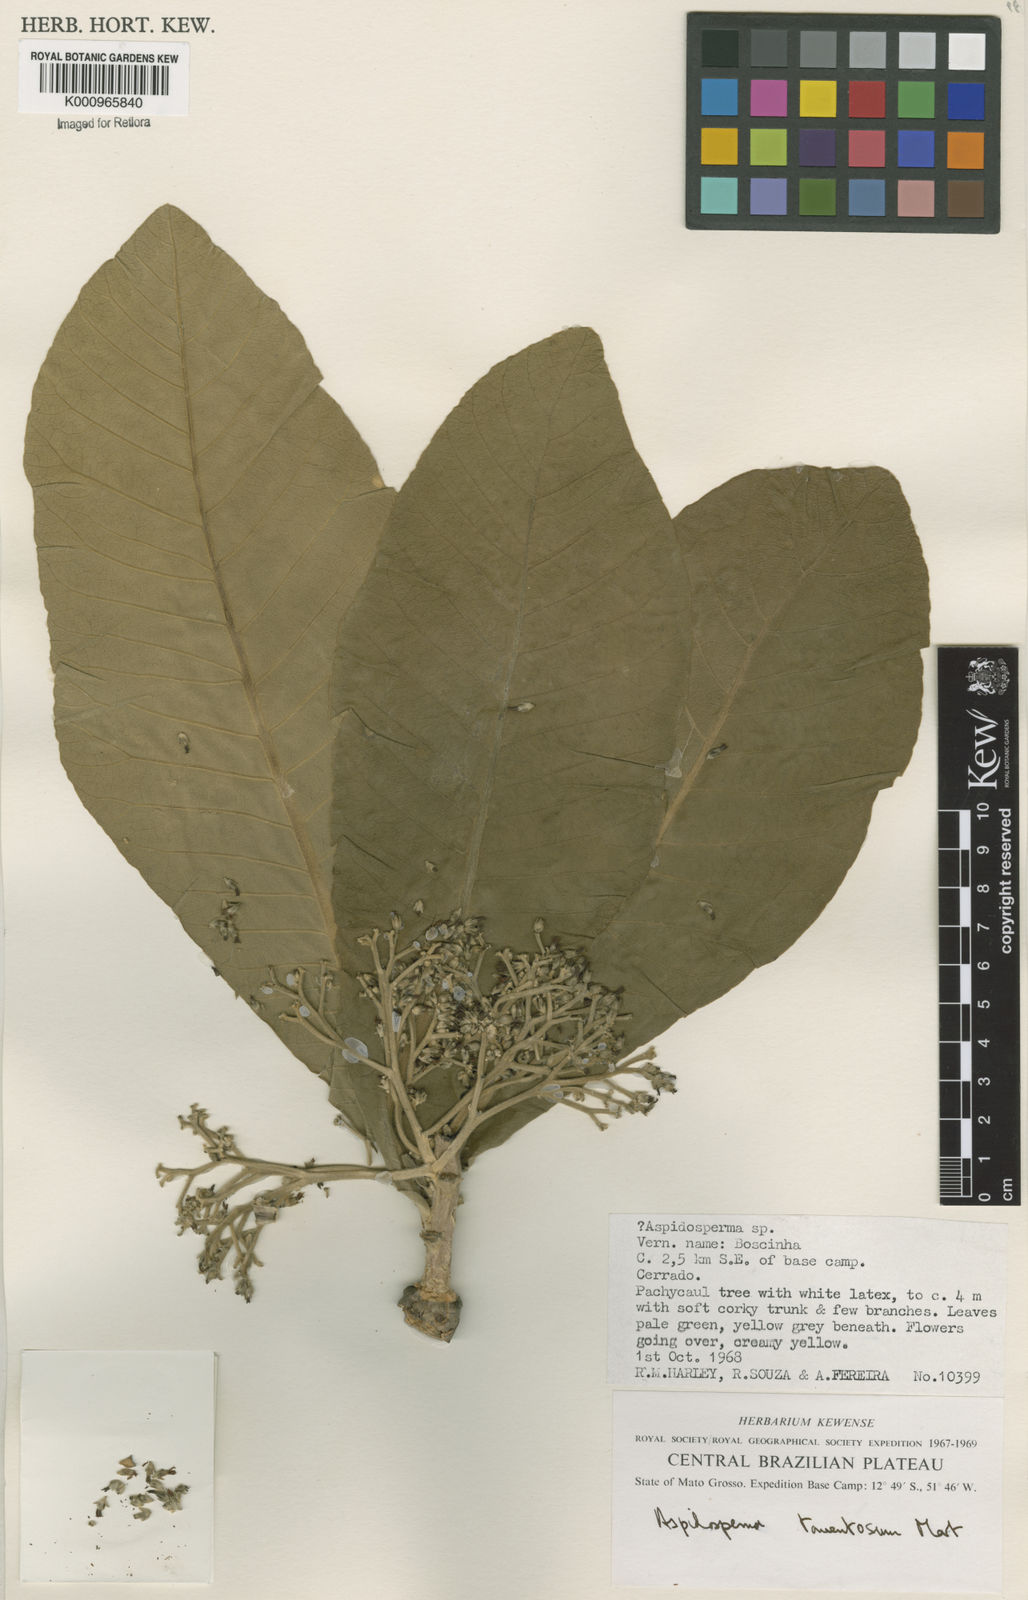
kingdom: Plantae
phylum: Tracheophyta
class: Magnoliopsida
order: Gentianales
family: Apocynaceae
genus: Aspidosperma
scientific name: Aspidosperma tomentosum
